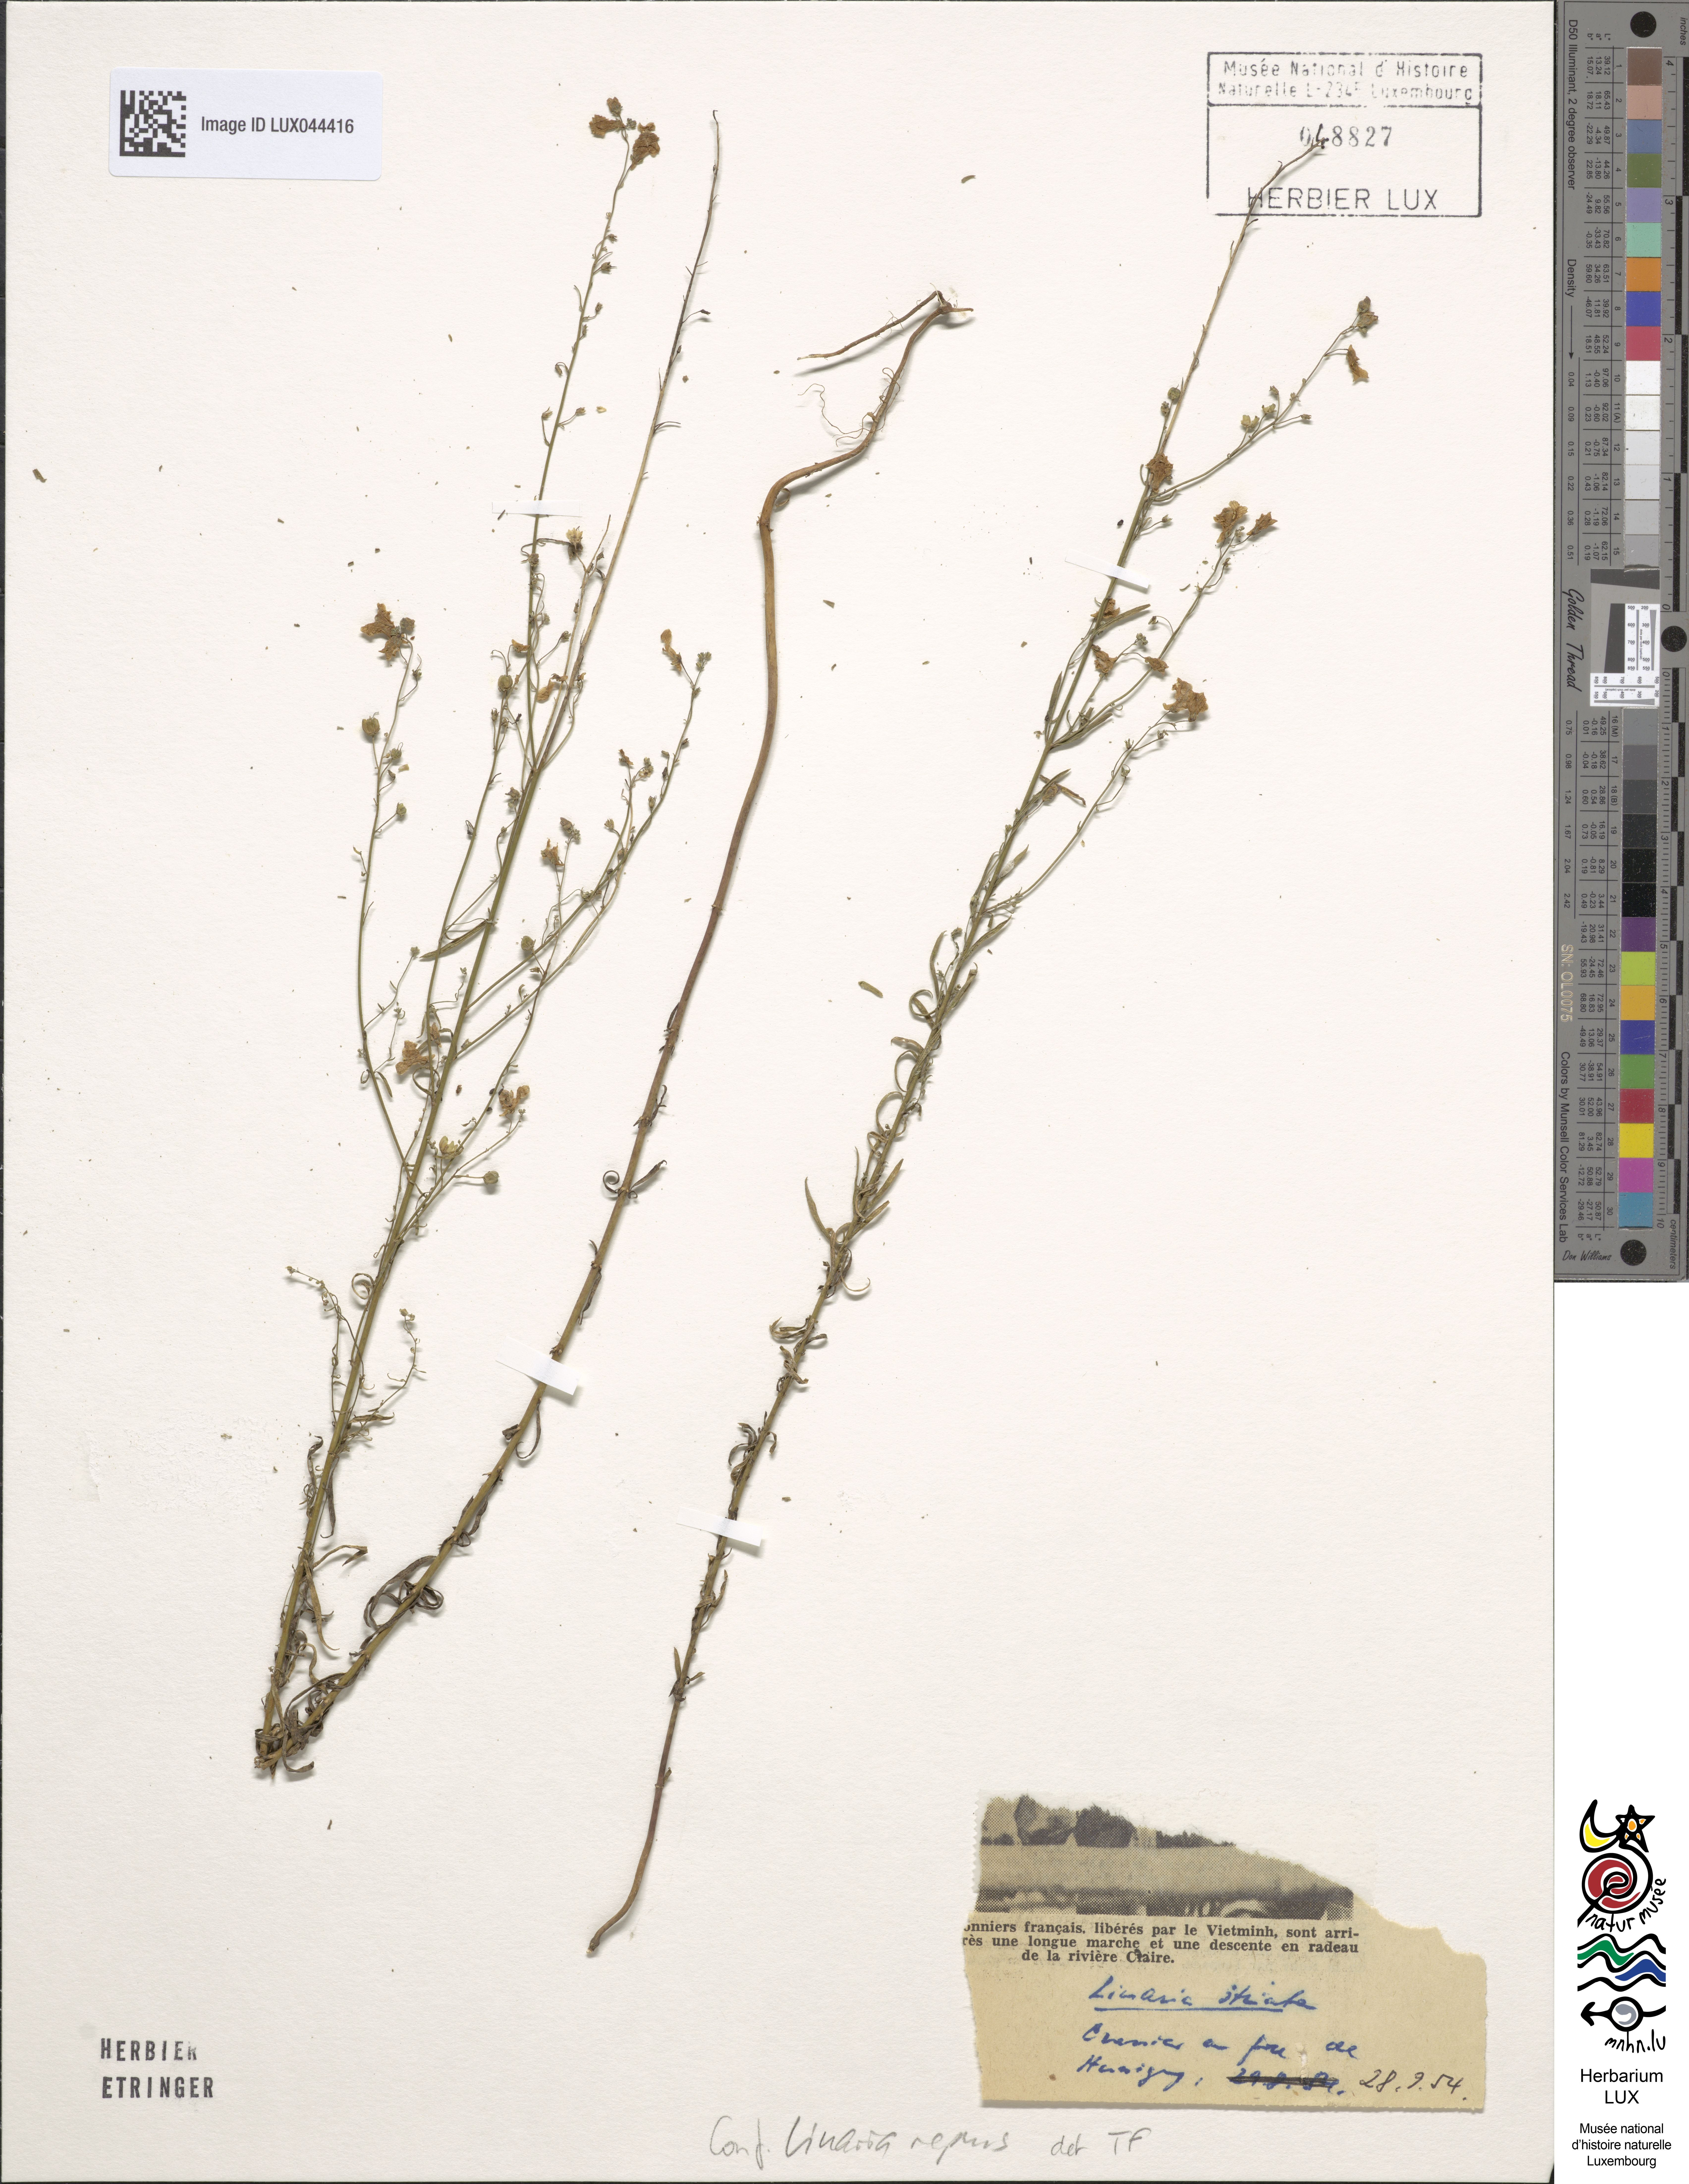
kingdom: Plantae
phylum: Tracheophyta
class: Magnoliopsida
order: Lamiales
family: Plantaginaceae
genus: Linaria
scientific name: Linaria repens
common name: Pale toadflax
